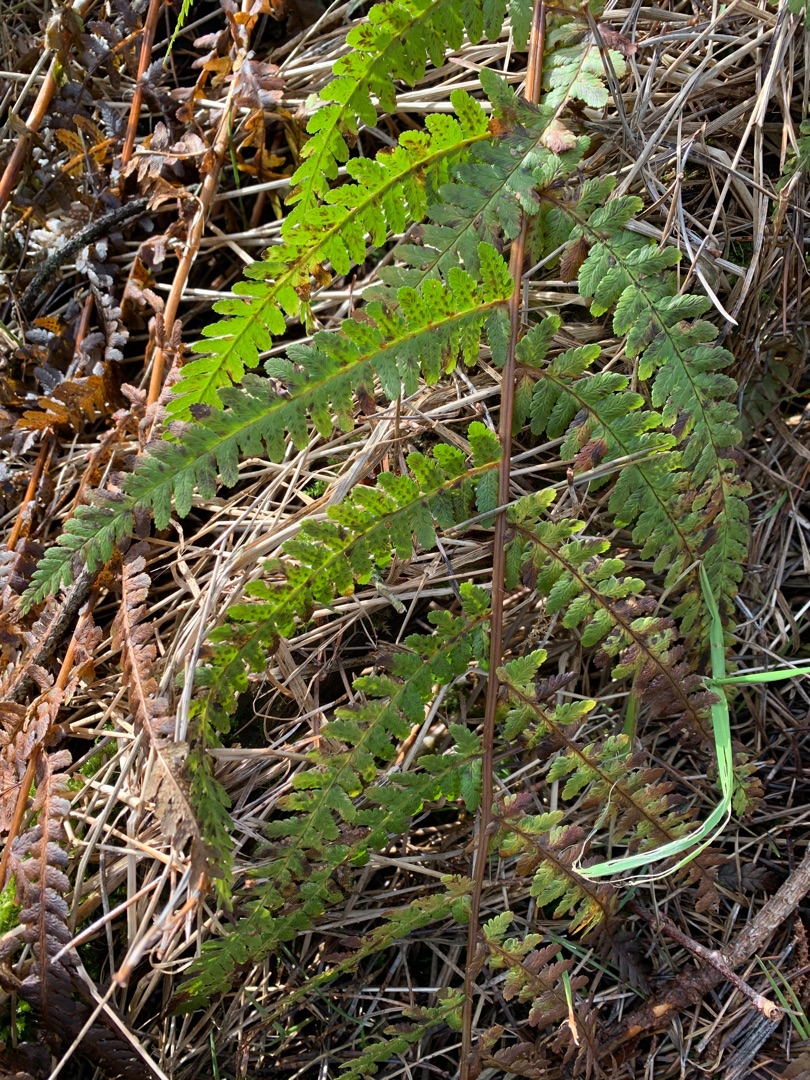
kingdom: Plantae
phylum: Tracheophyta
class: Polypodiopsida
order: Polypodiales
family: Dryopteridaceae
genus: Dryopteris
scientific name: Dryopteris filix-mas
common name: Almindelig mangeløv
